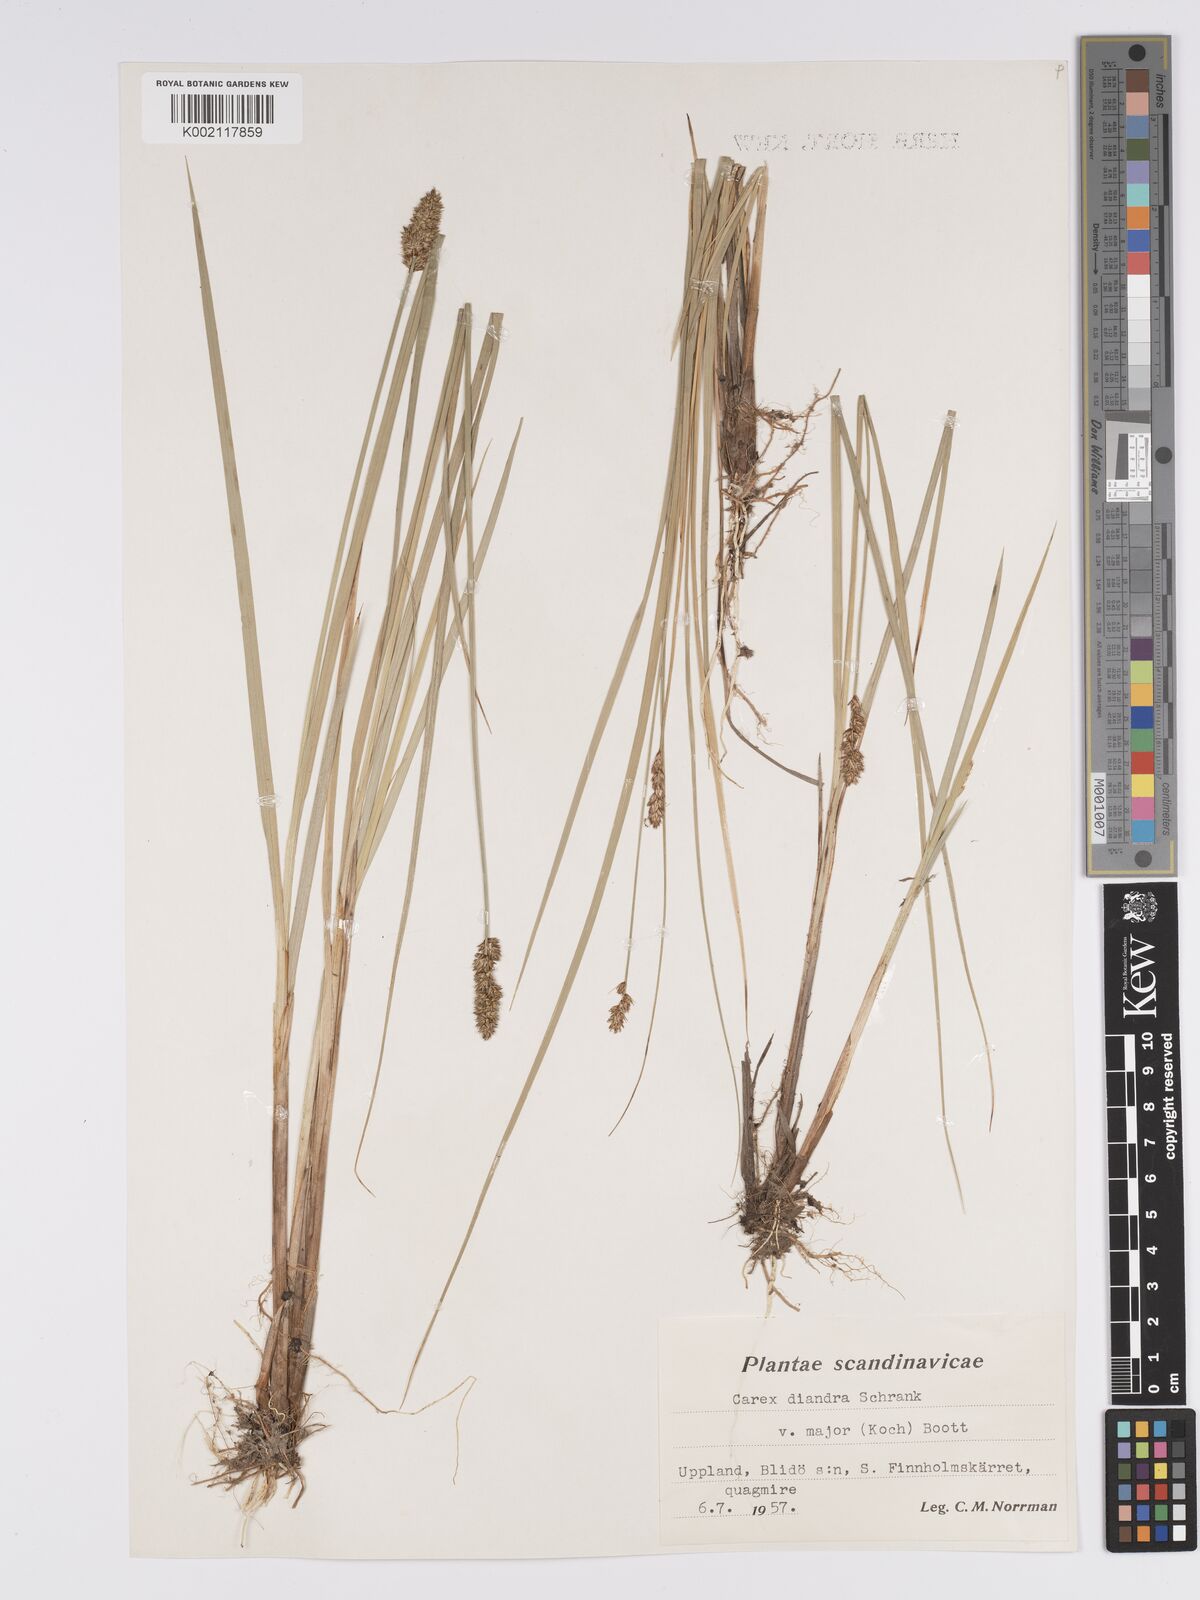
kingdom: Plantae
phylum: Tracheophyta
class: Liliopsida
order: Poales
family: Cyperaceae
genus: Carex
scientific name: Carex diandra
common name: Lesser tussock-sedge
